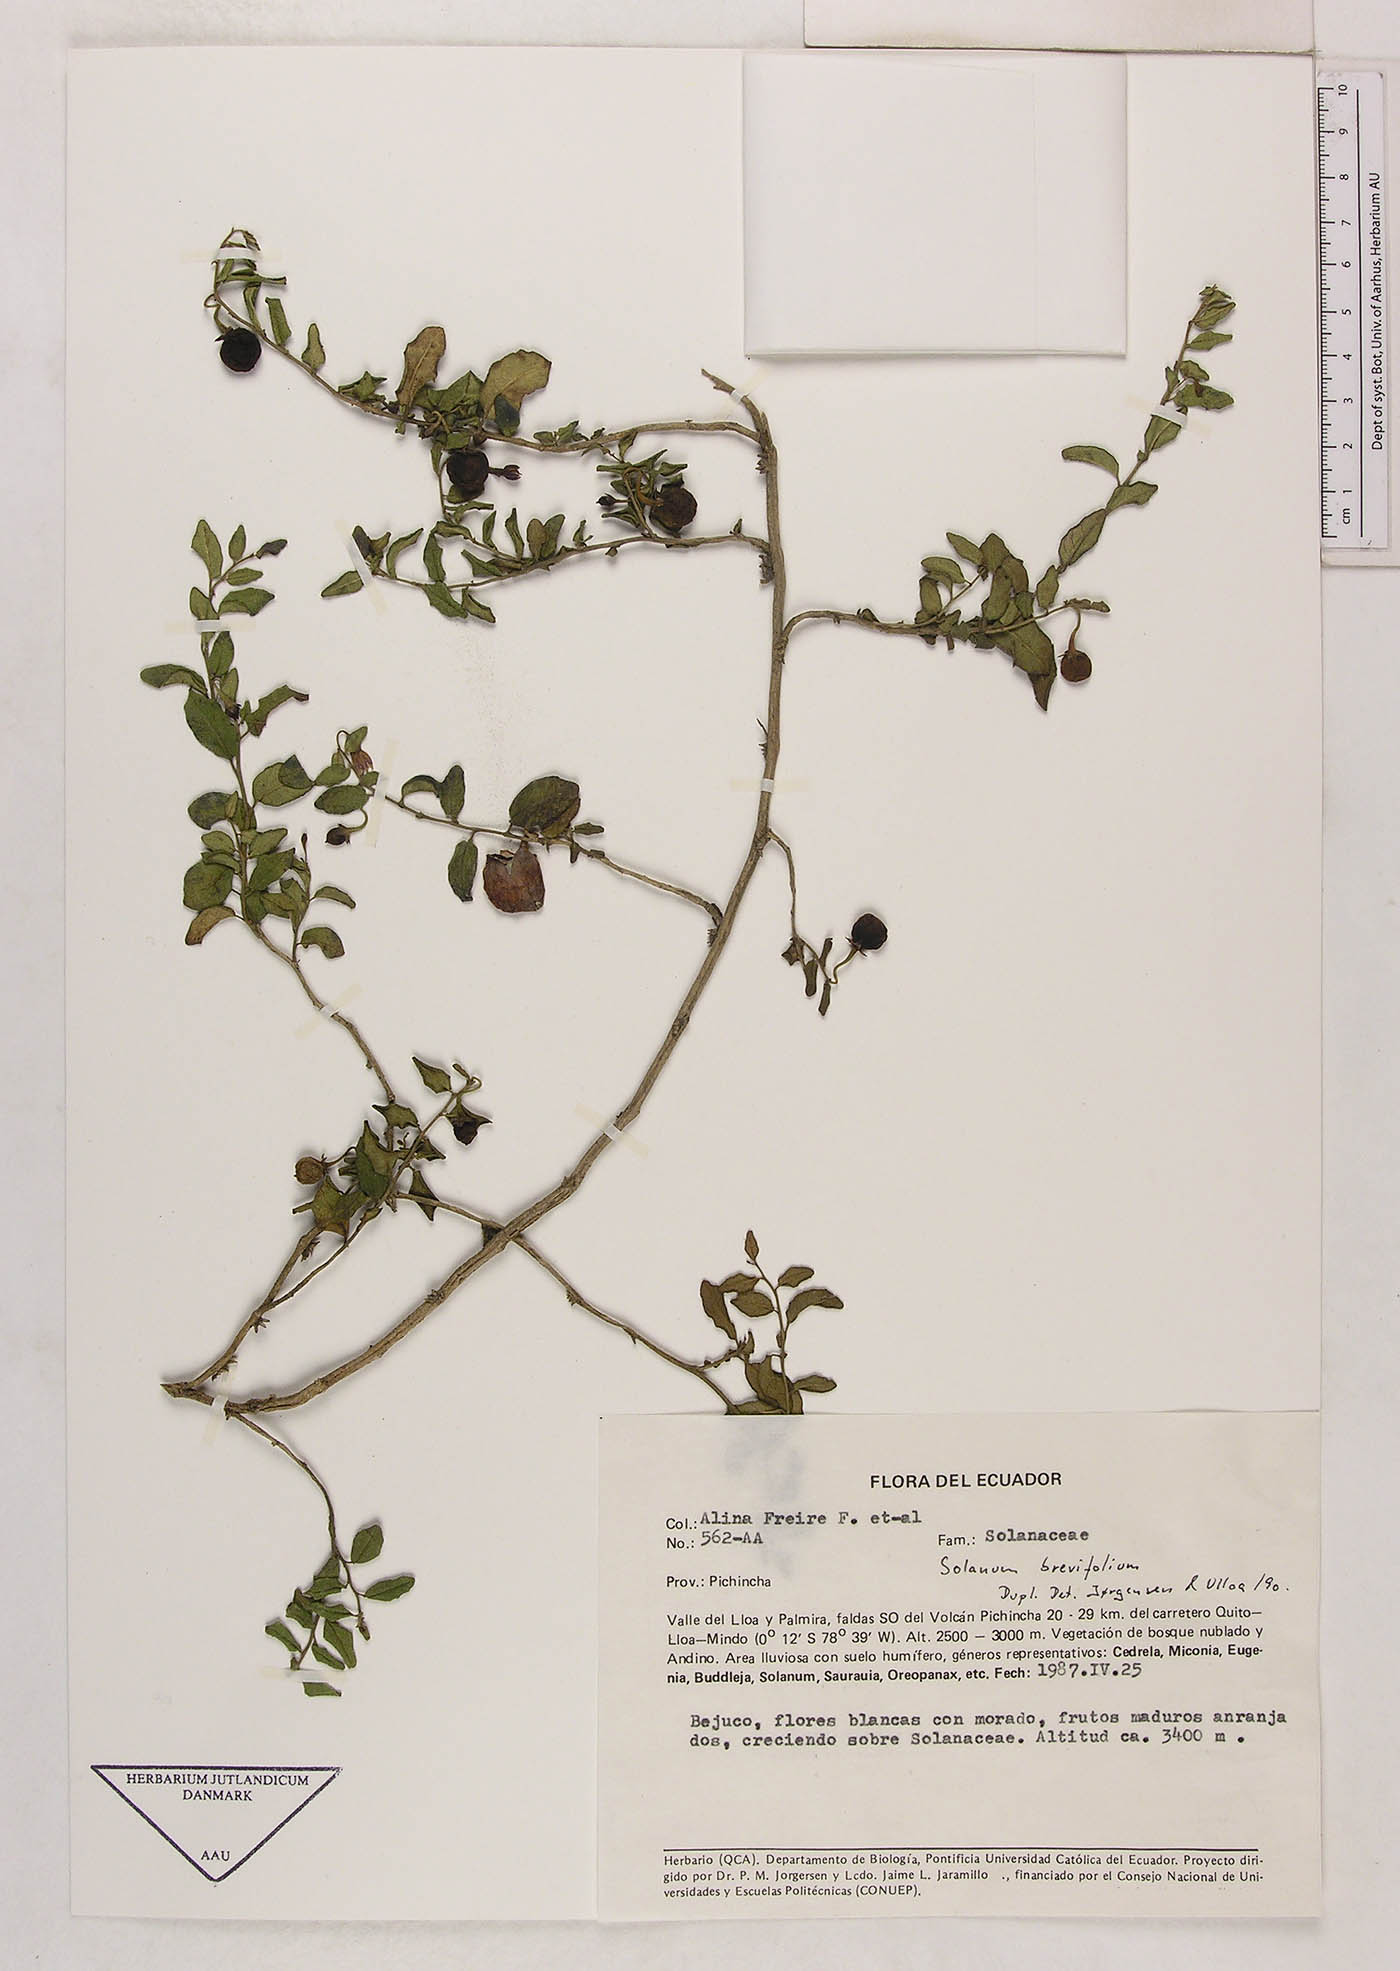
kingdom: Plantae
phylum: Tracheophyta
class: Magnoliopsida
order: Solanales
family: Solanaceae
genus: Solanum
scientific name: Solanum brevifolium
